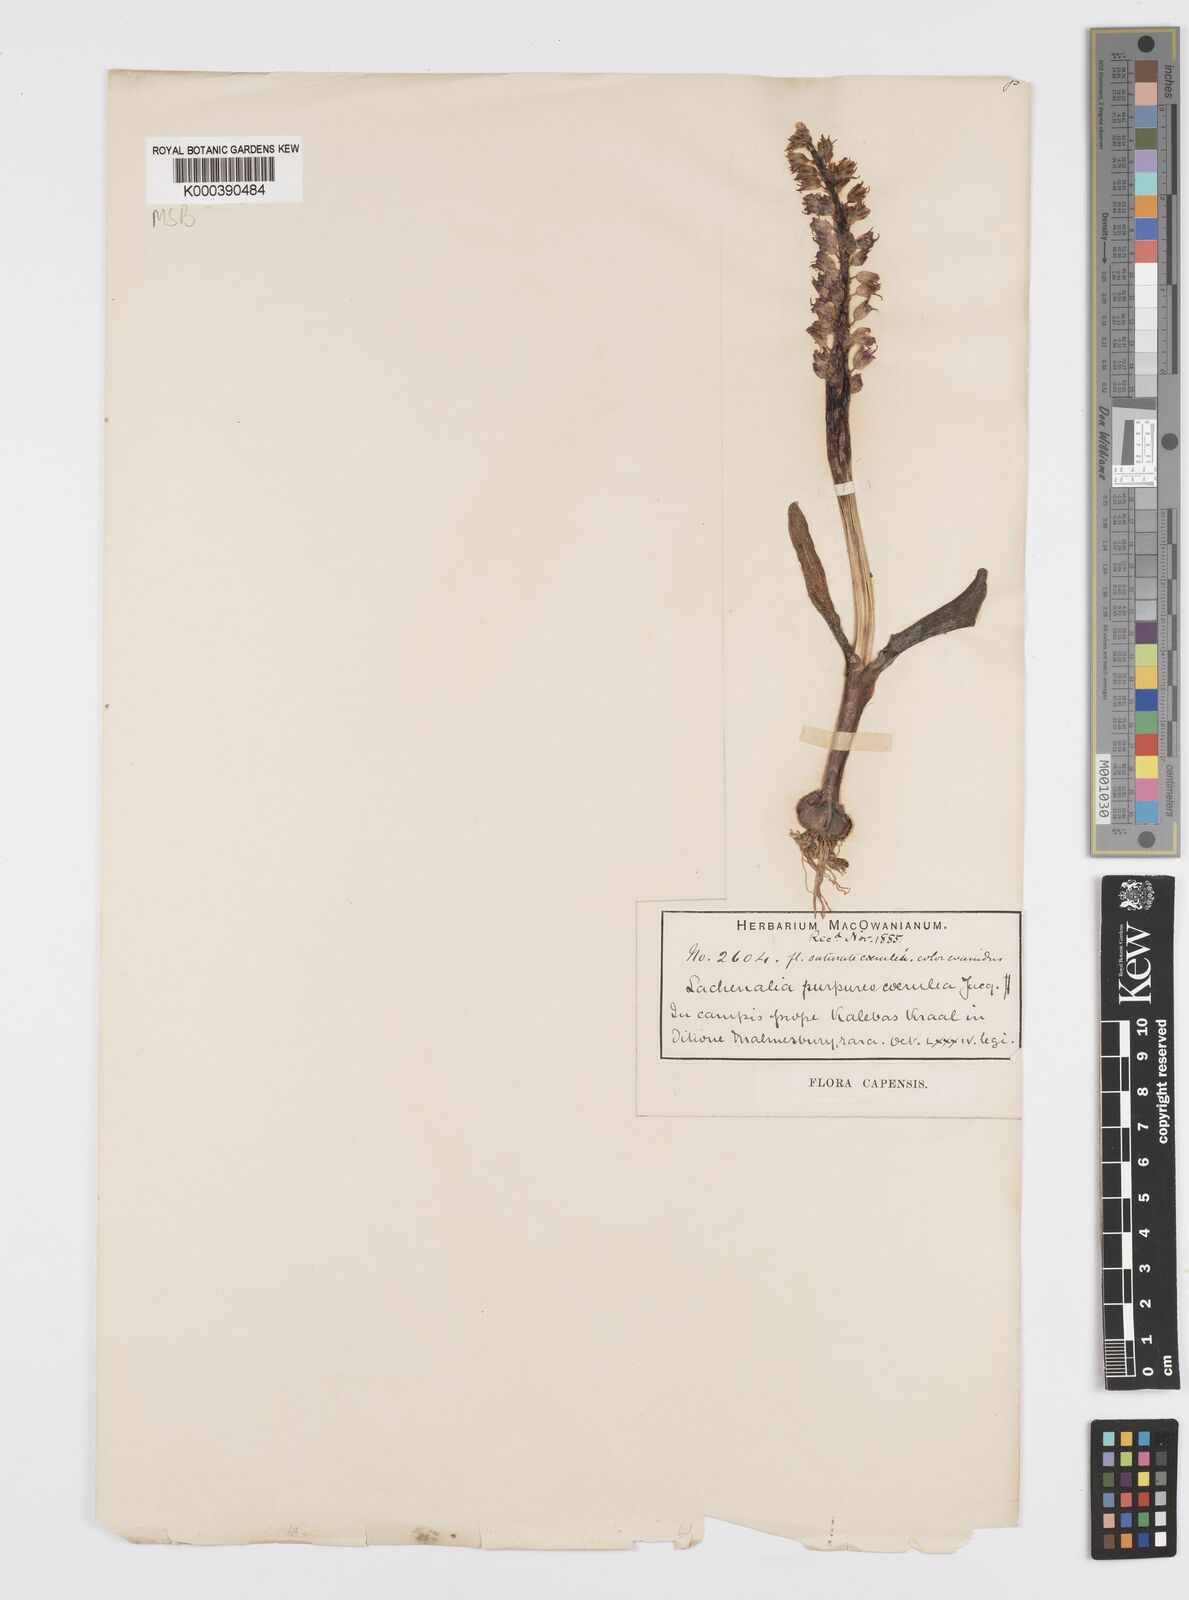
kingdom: Plantae
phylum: Tracheophyta
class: Liliopsida
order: Asparagales
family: Asparagaceae
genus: Lachenalia
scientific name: Lachenalia purpureocaerulea
